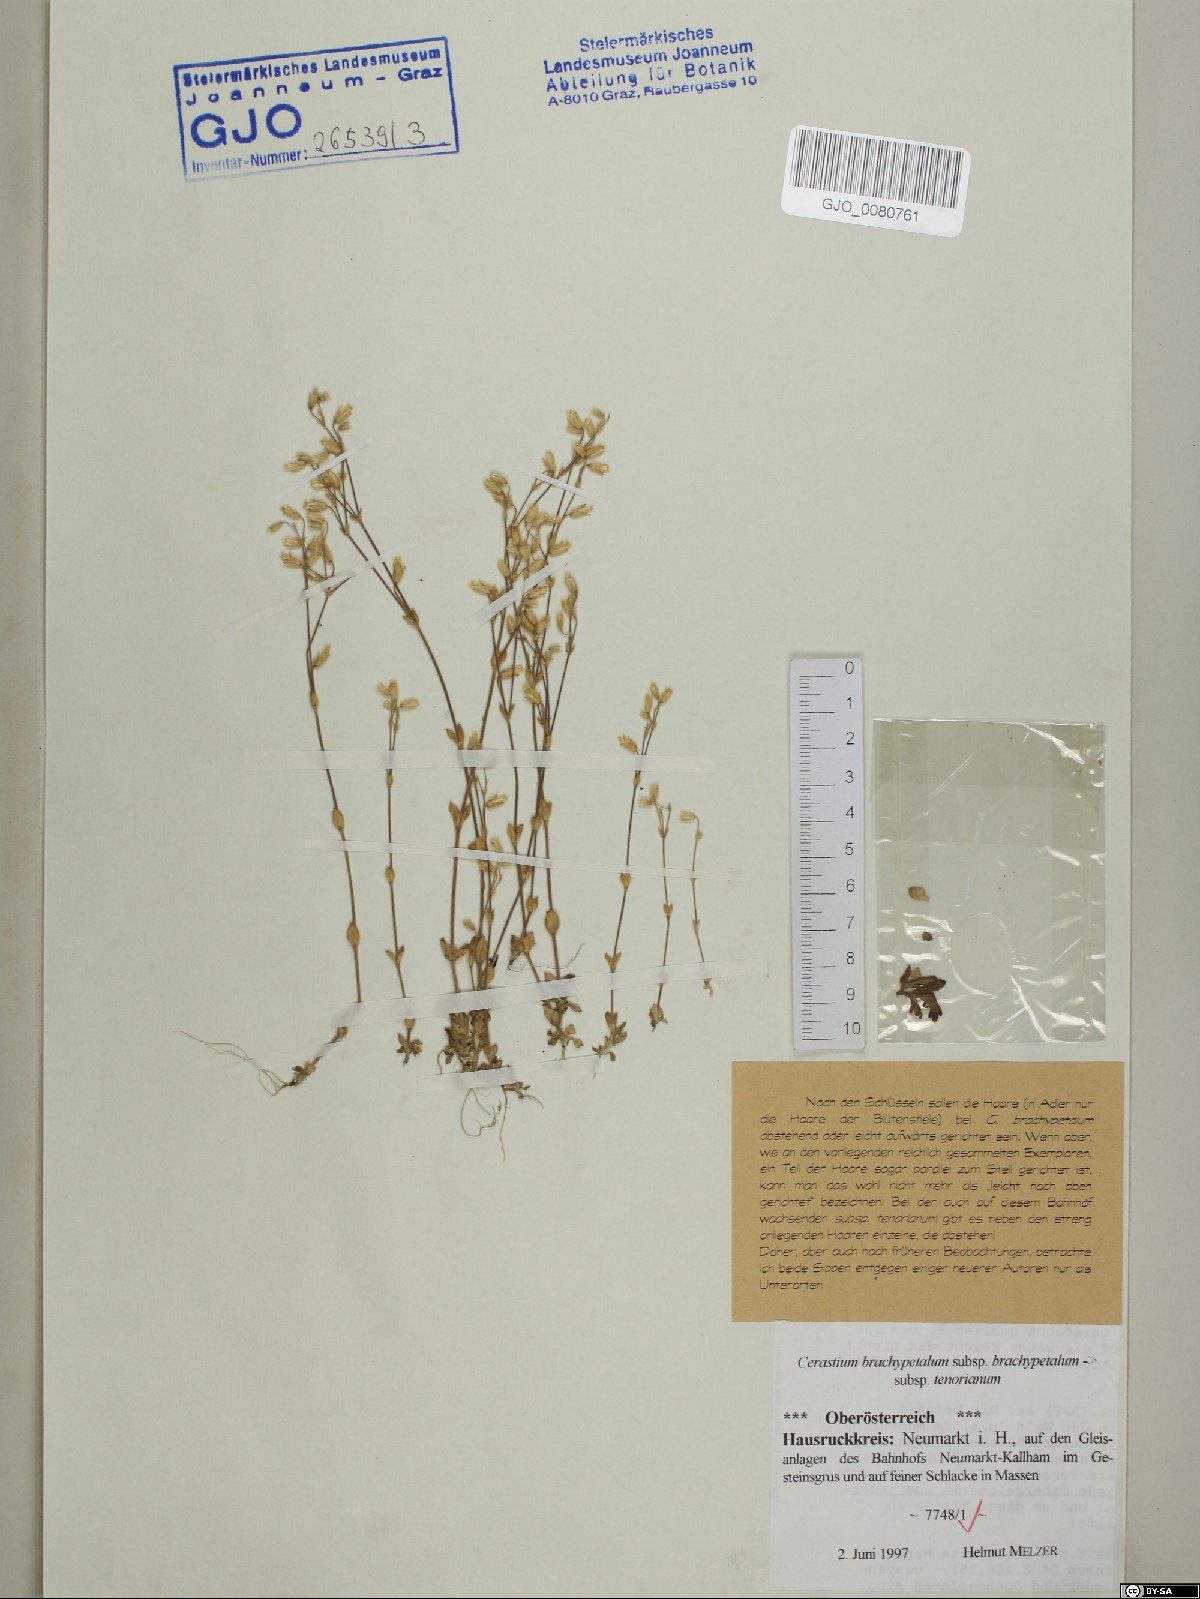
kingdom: Plantae
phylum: Tracheophyta
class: Magnoliopsida
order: Caryophyllales
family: Caryophyllaceae
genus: Cerastium
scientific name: Cerastium brachypetalum
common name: Grey mouse-ear
